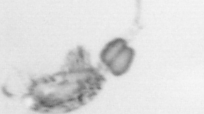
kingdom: Animalia
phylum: Arthropoda
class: Copepoda
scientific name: Copepoda
